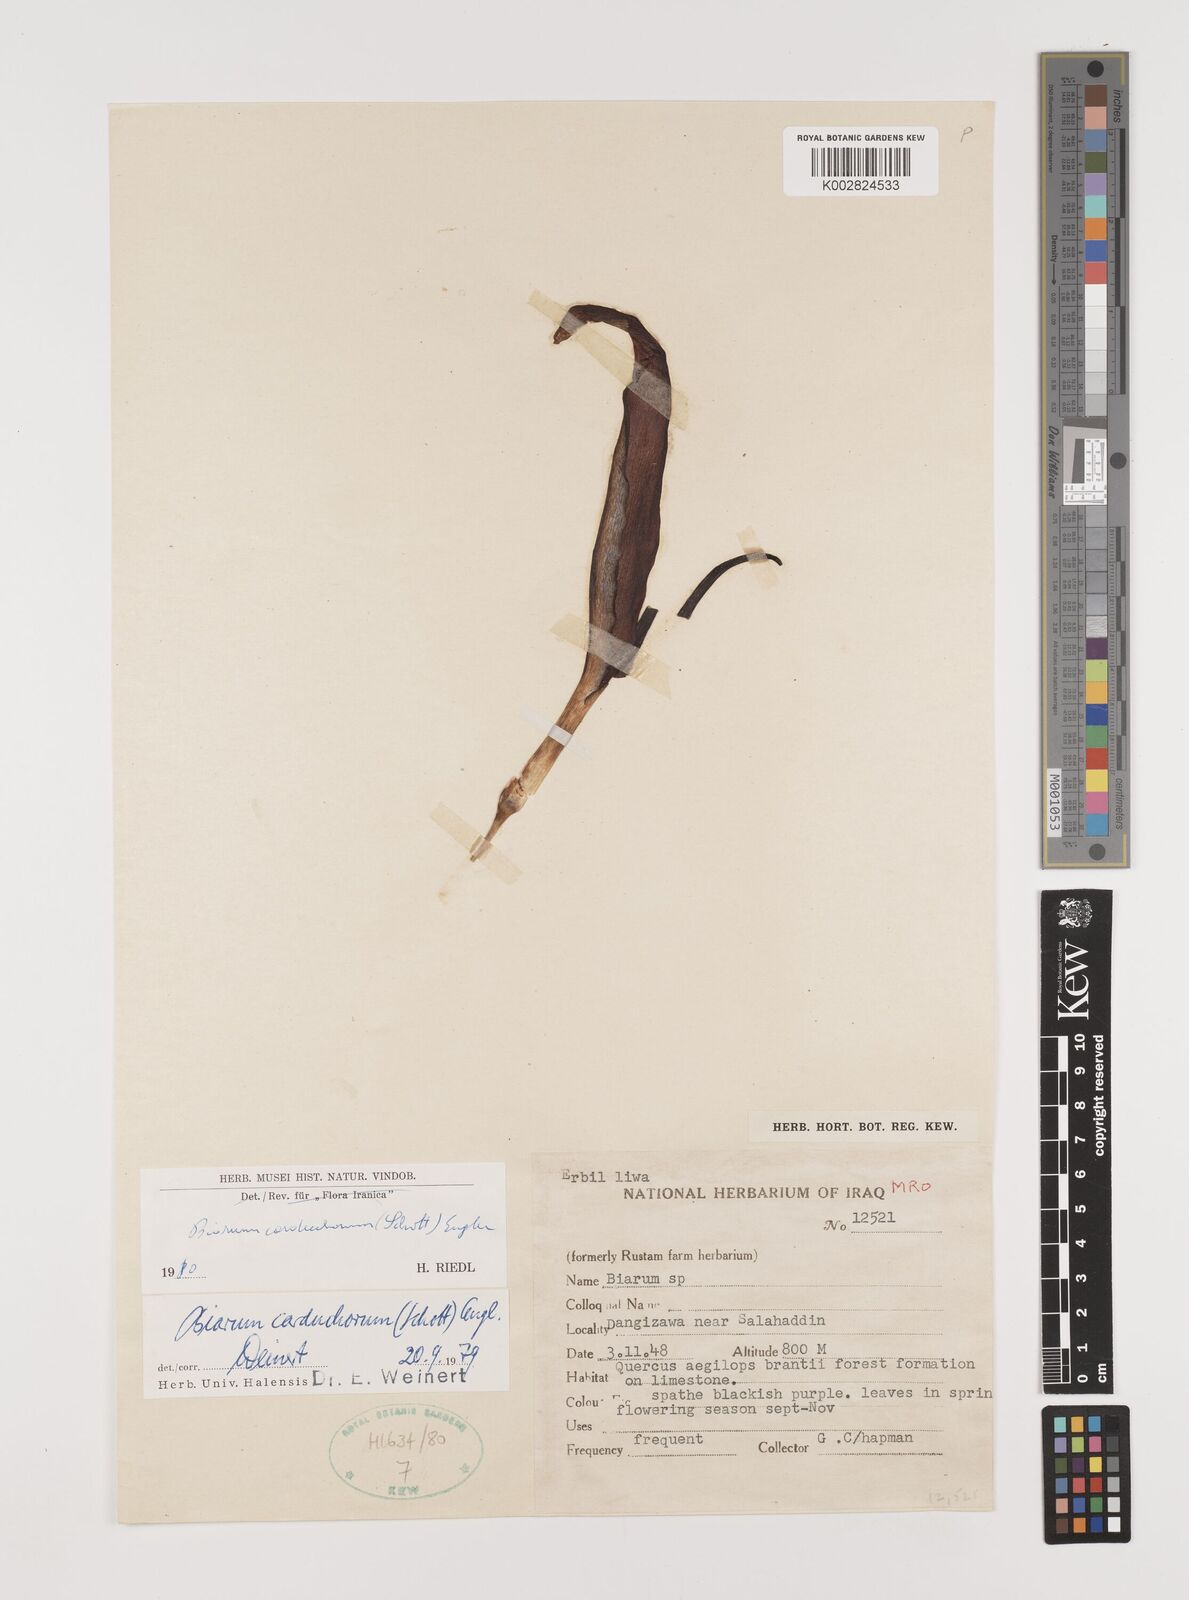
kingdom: Plantae
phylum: Tracheophyta
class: Liliopsida
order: Alismatales
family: Araceae
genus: Biarum
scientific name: Biarum carduchorum
